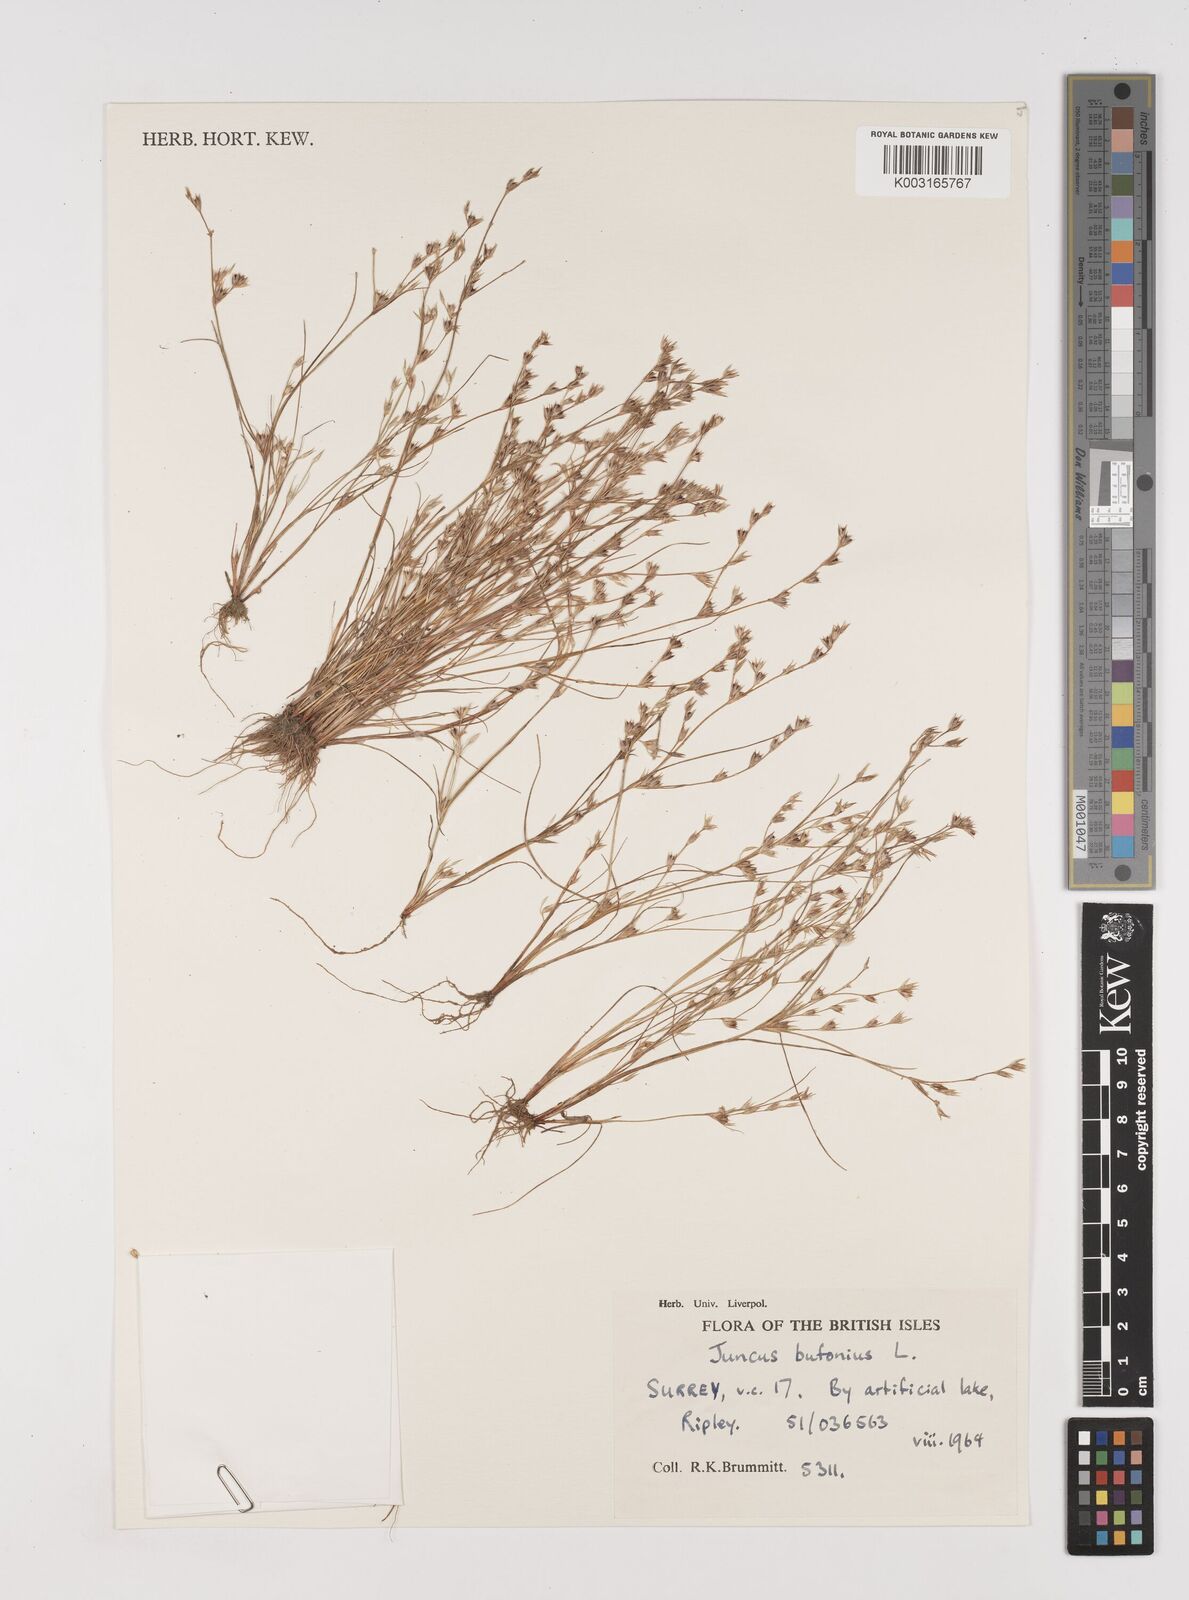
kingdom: Plantae
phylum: Tracheophyta
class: Liliopsida
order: Poales
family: Juncaceae
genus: Juncus
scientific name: Juncus bufonius
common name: Toad rush
